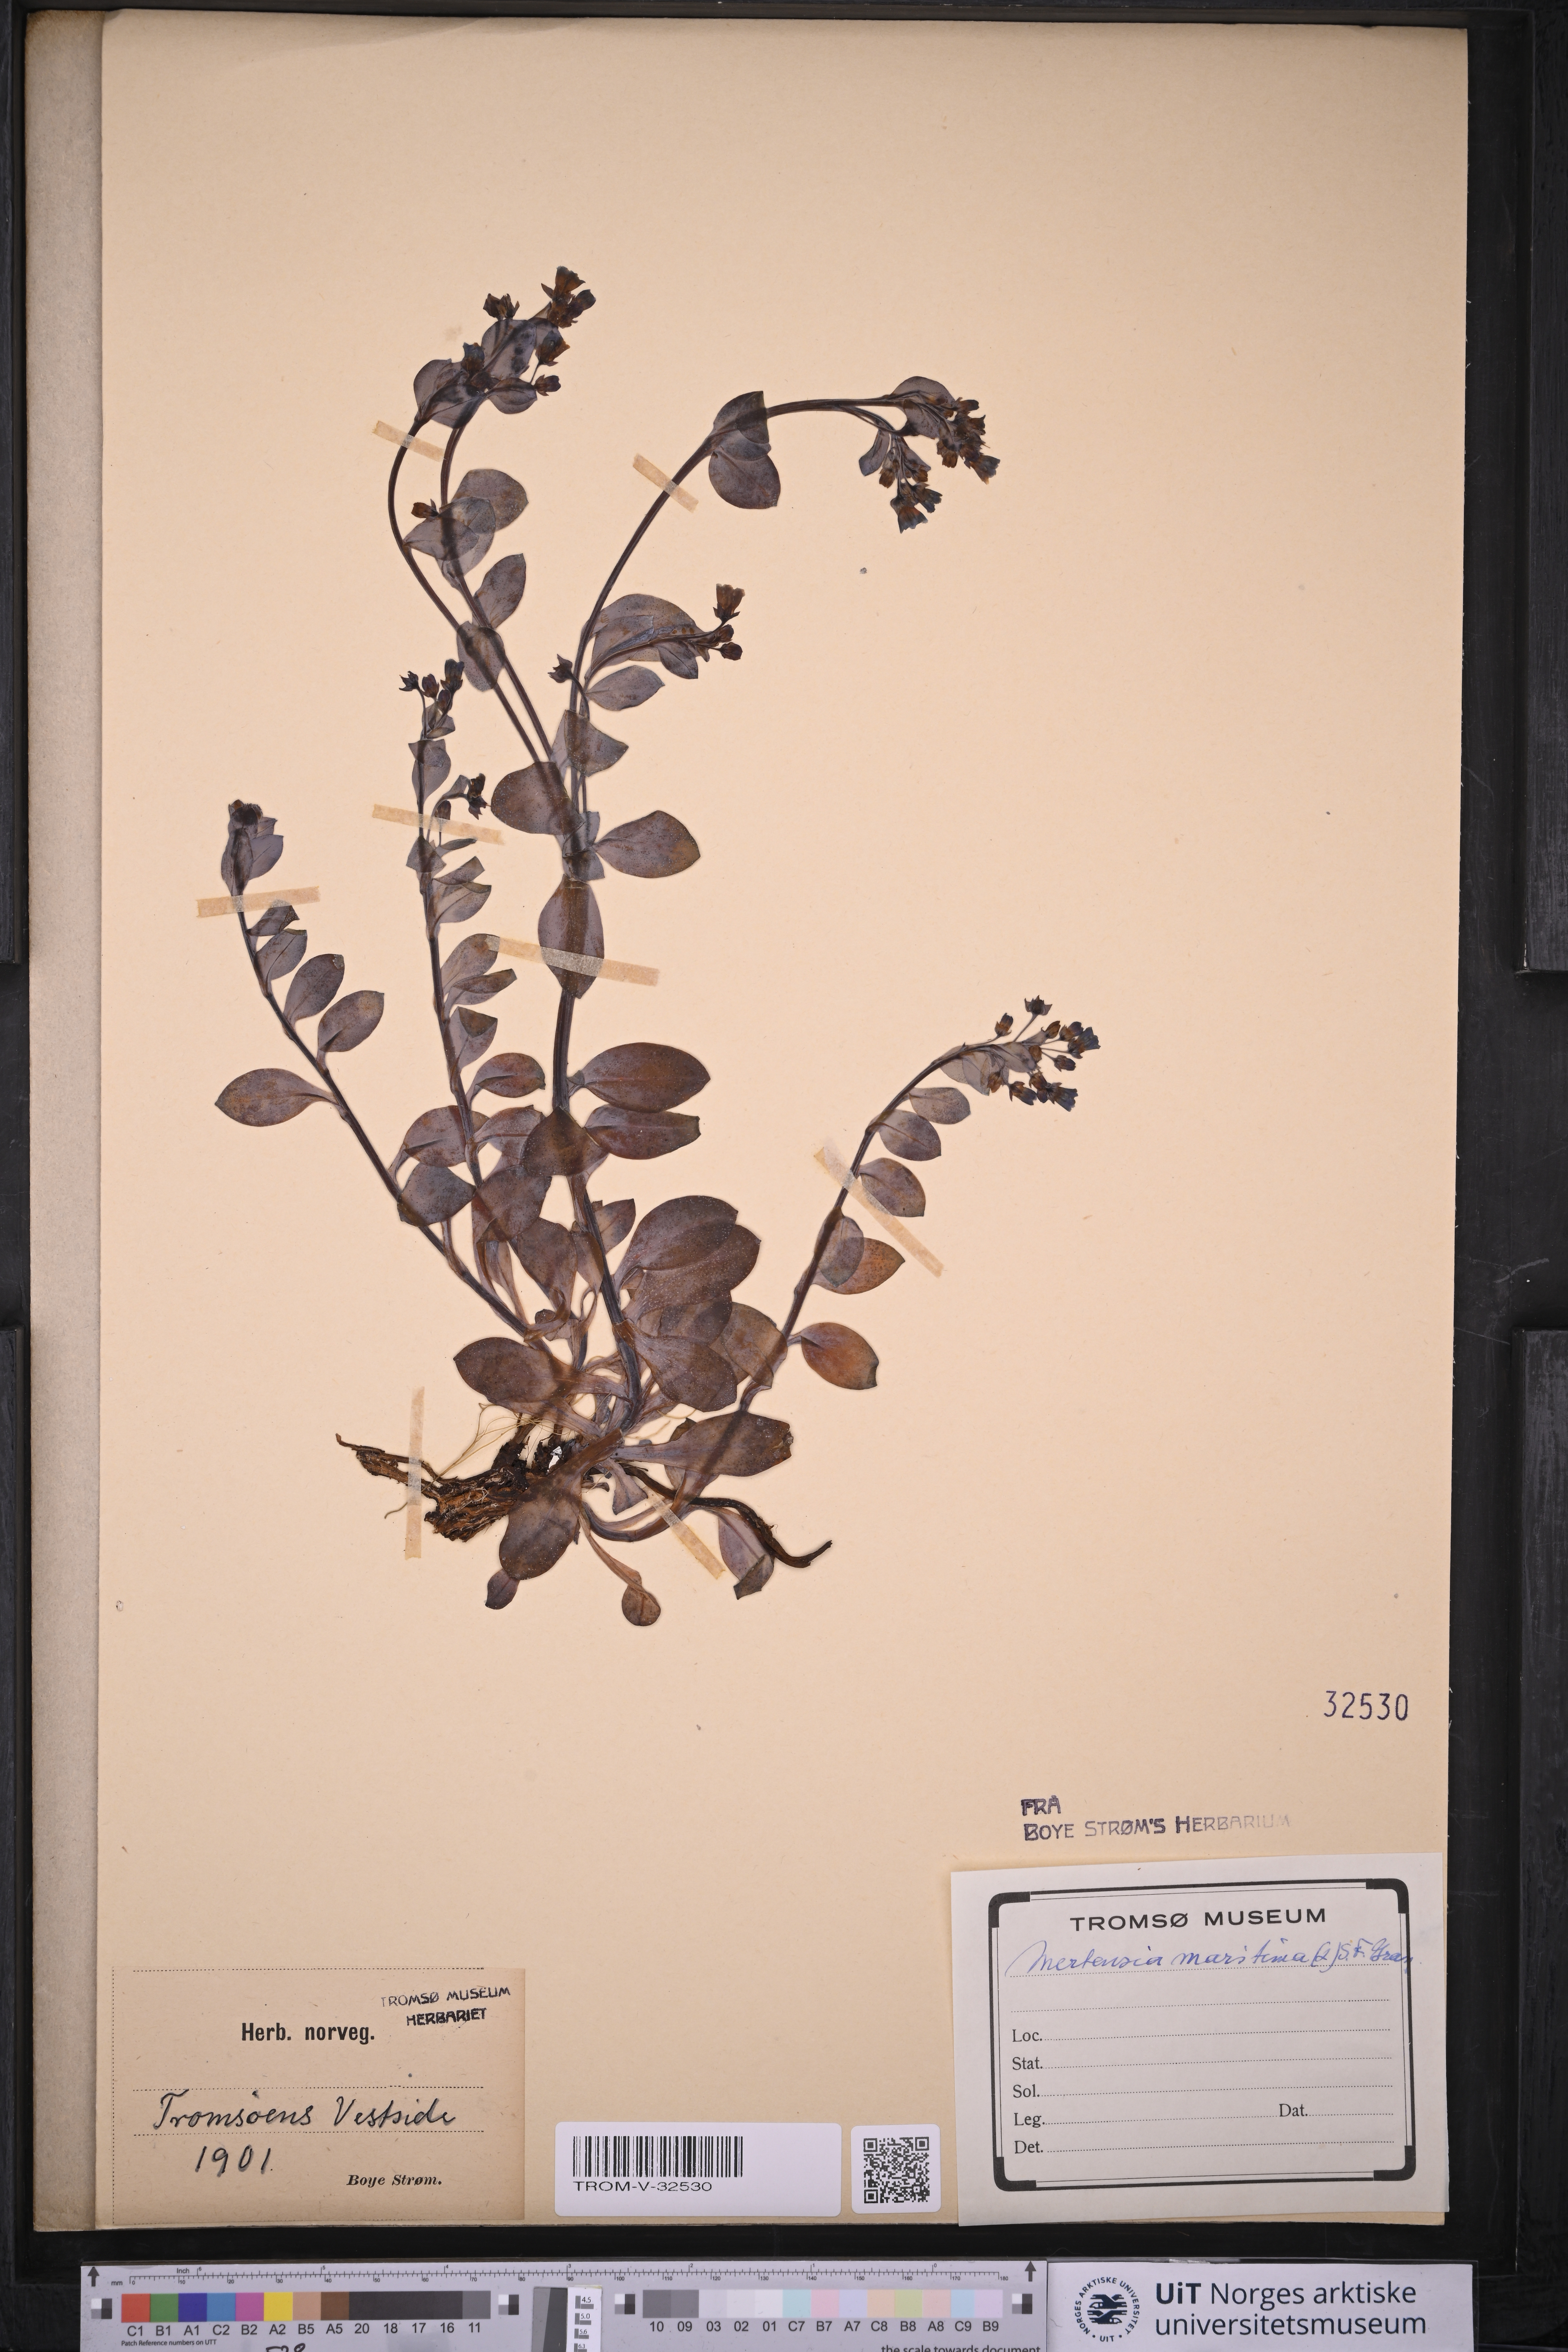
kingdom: Plantae
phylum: Tracheophyta
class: Magnoliopsida
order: Boraginales
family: Boraginaceae
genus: Mertensia
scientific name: Mertensia maritima
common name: Oysterplant
